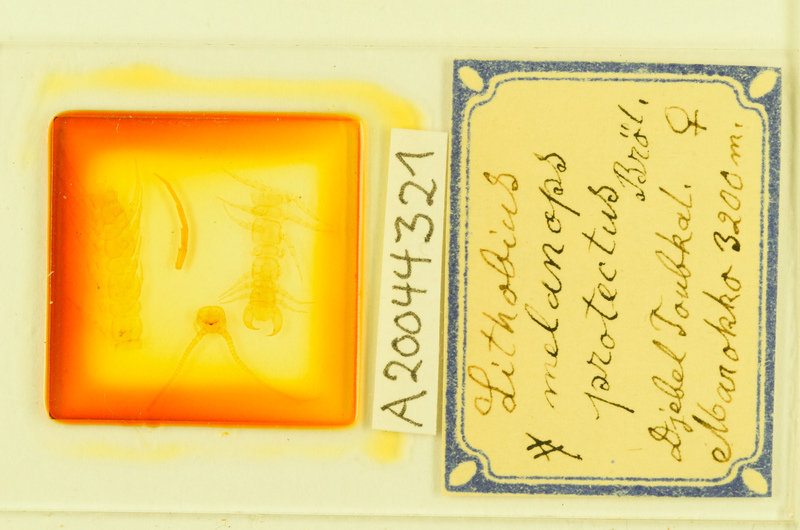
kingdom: Animalia
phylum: Arthropoda
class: Chilopoda
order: Lithobiomorpha
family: Lithobiidae
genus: Lithobius
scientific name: Lithobius alluaudi
